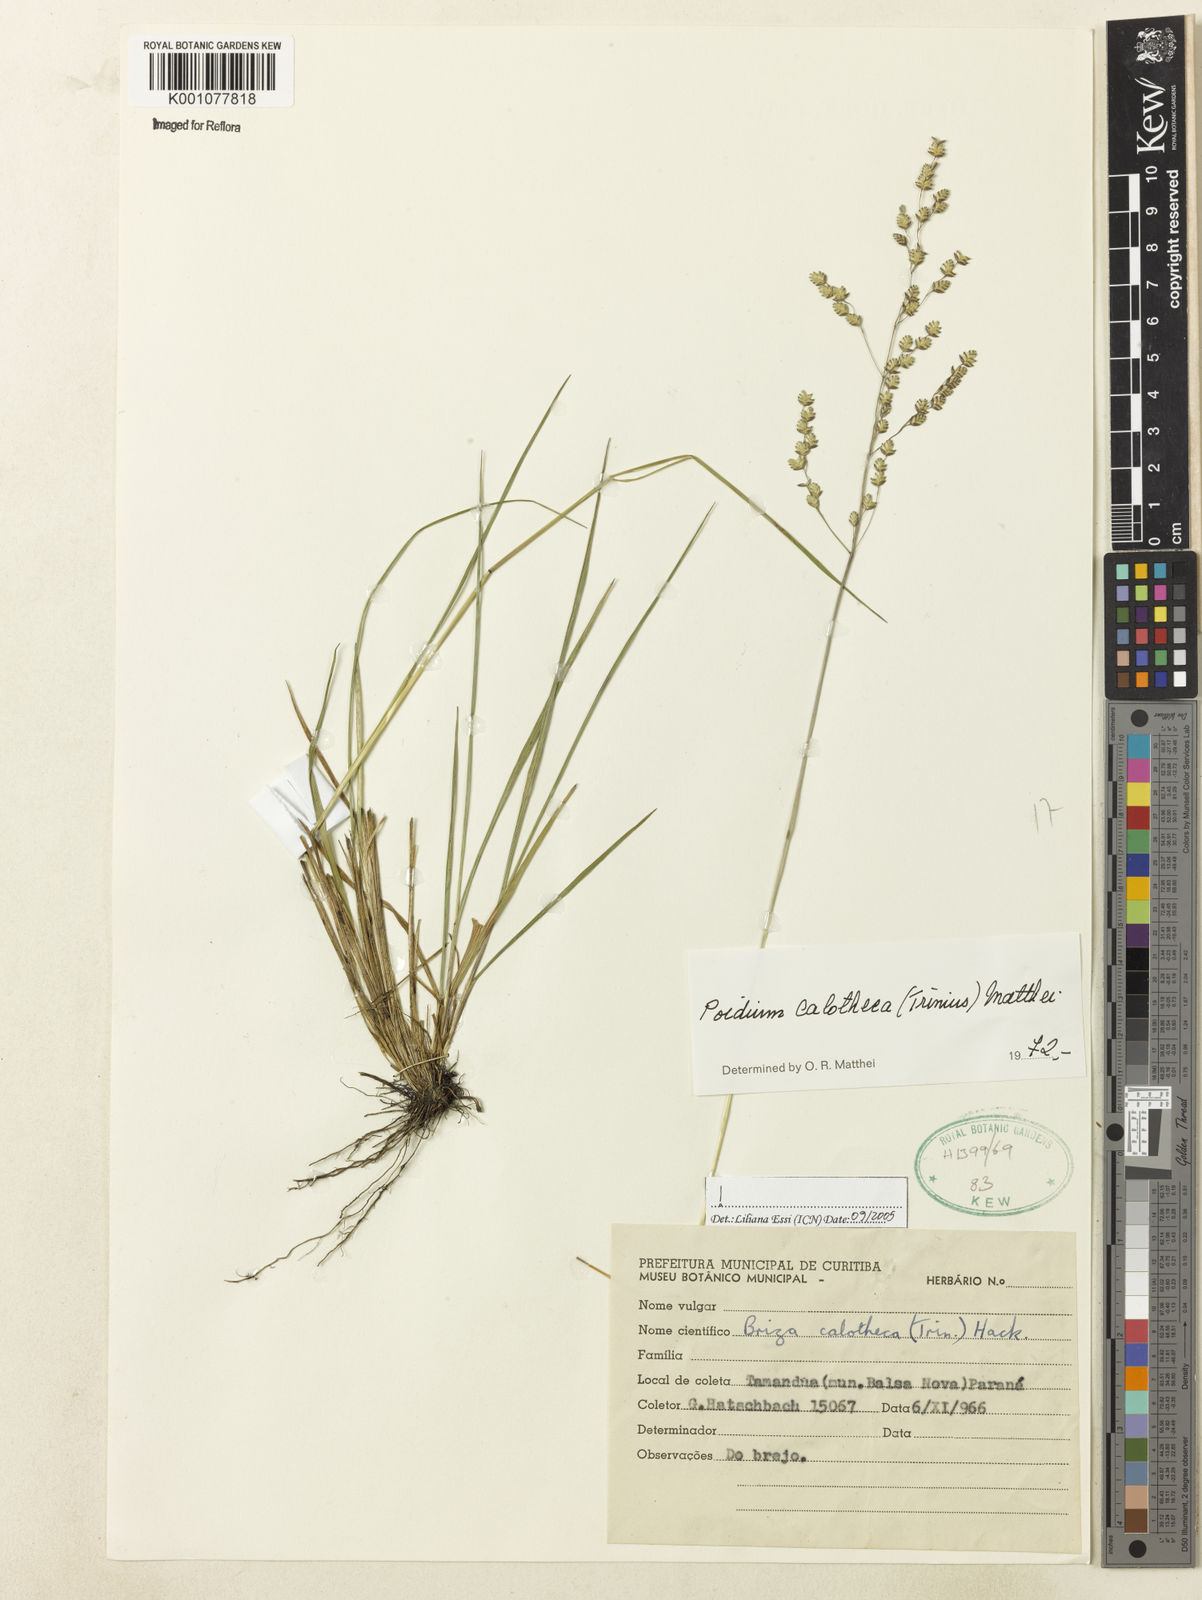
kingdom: Plantae
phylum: Tracheophyta
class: Liliopsida
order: Poales
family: Poaceae
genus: Poidium
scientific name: Poidium calotheca
